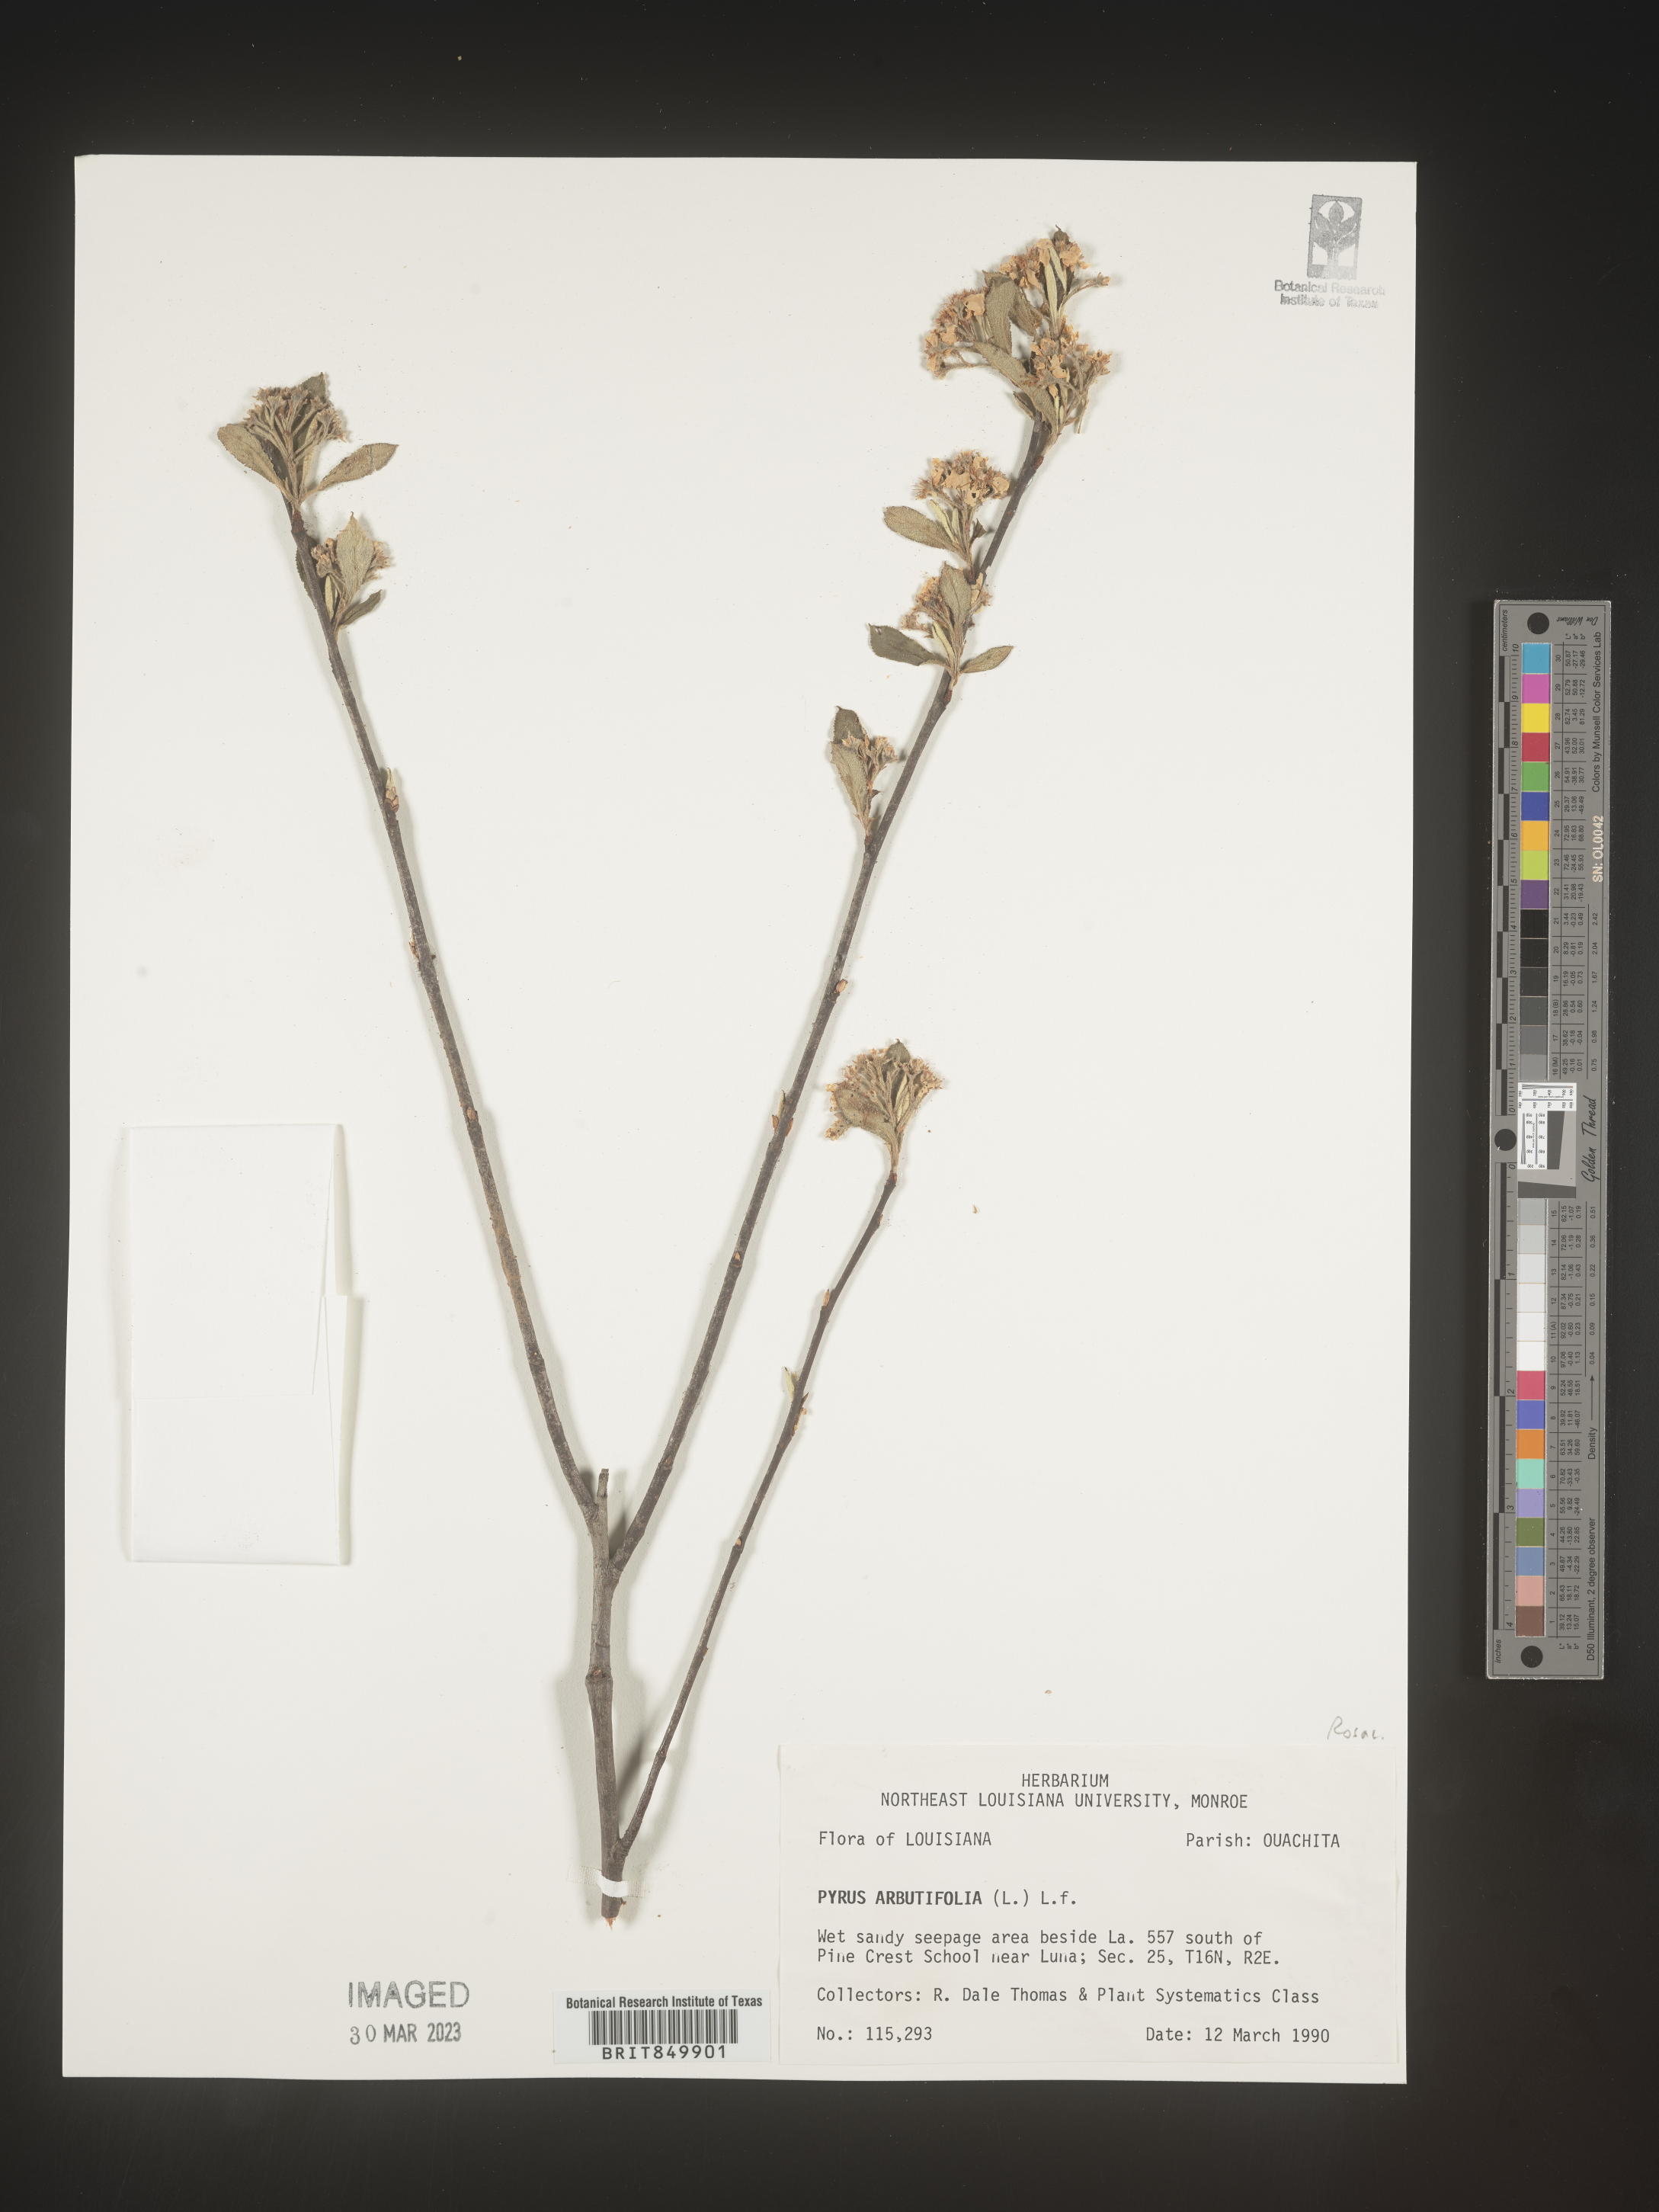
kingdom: Plantae
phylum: Tracheophyta
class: Magnoliopsida
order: Rosales
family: Rosaceae
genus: Pyrus
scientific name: Pyrus
